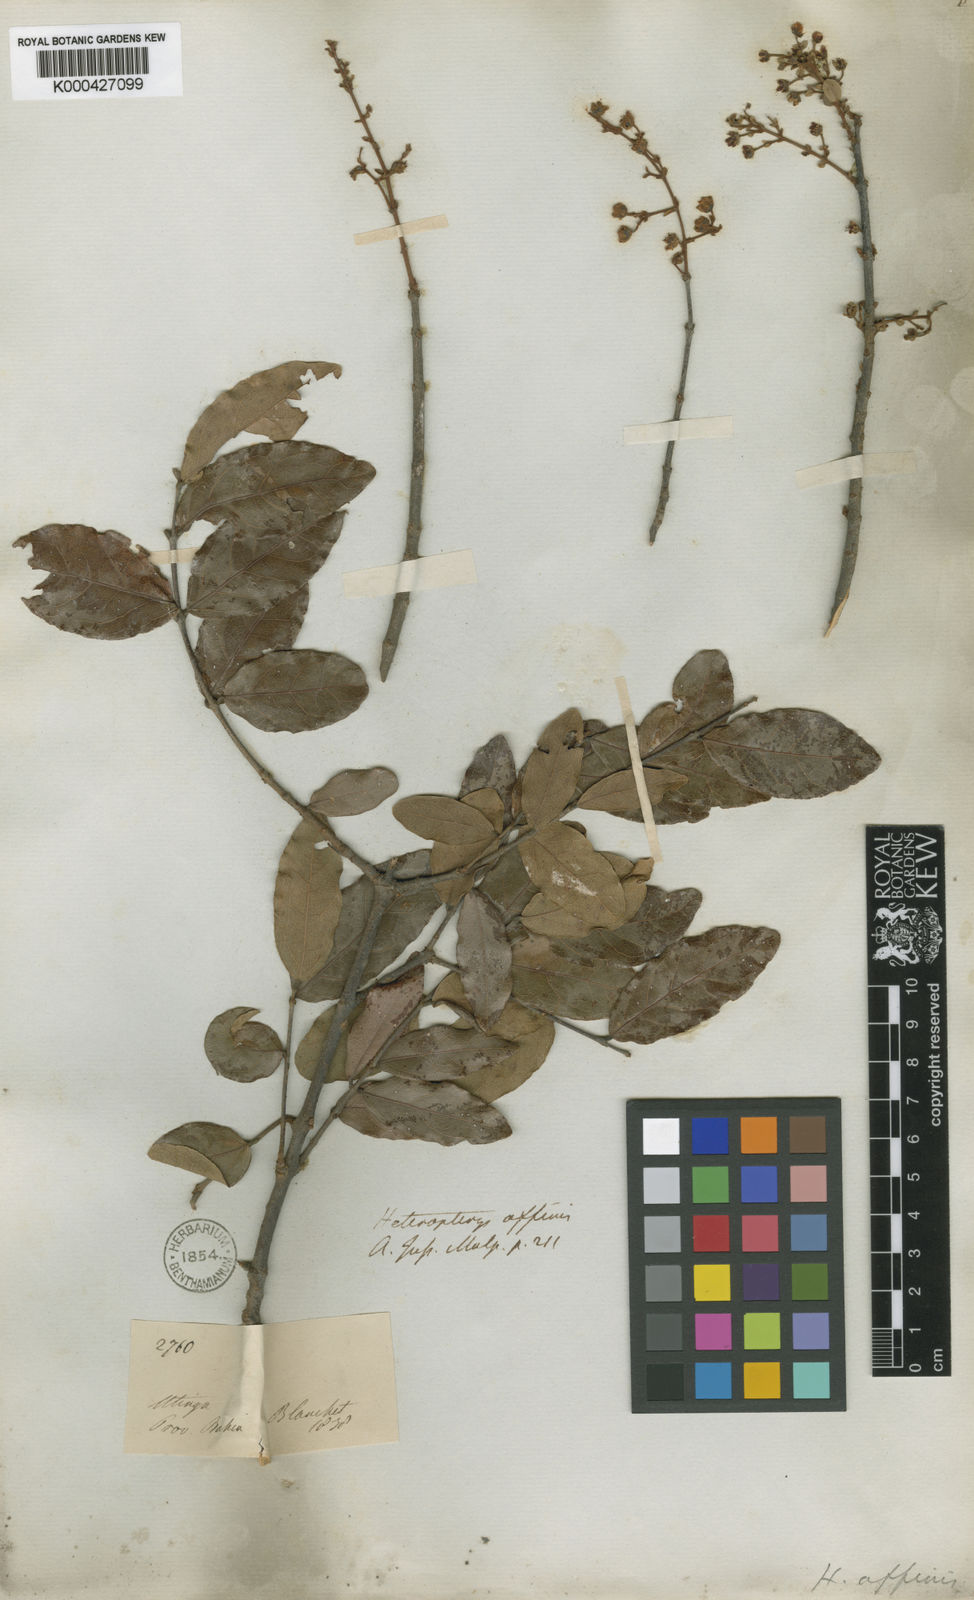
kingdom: Plantae
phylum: Tracheophyta
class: Magnoliopsida
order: Malpighiales
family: Malpighiaceae
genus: Heteropterys
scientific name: Heteropterys escalloniifolia
